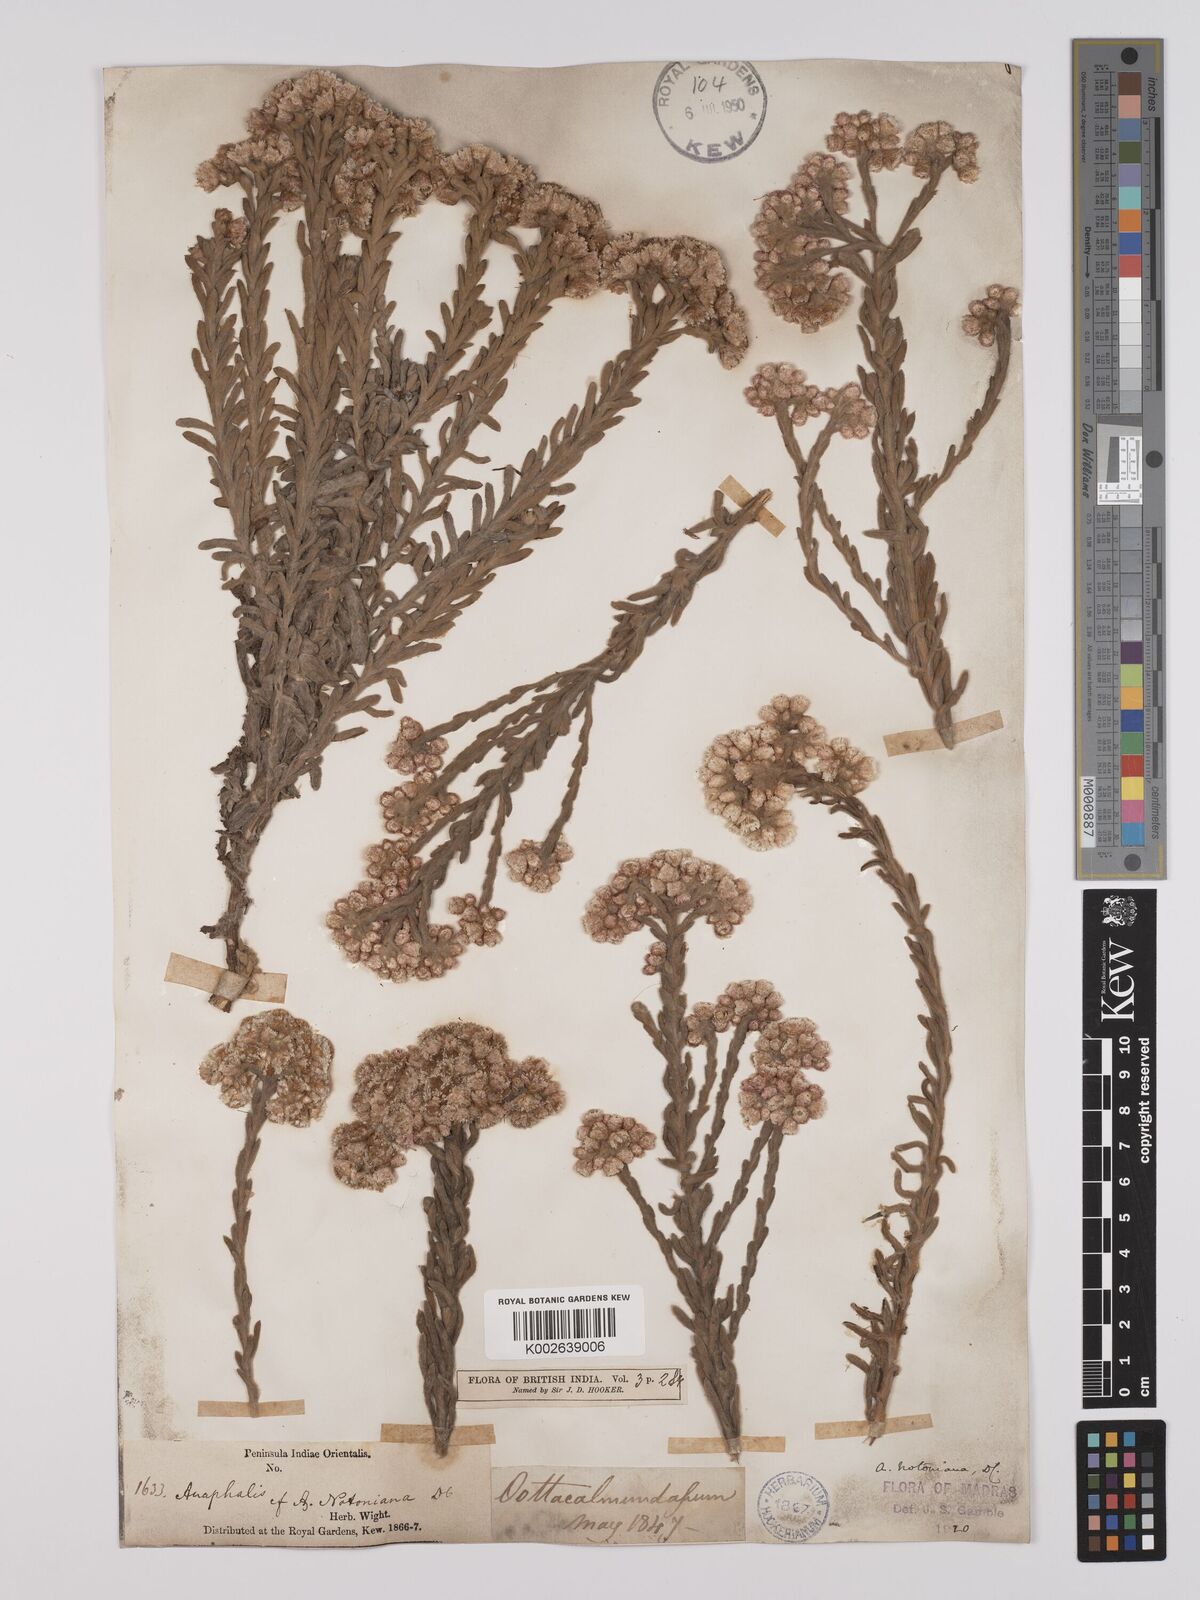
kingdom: Plantae
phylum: Tracheophyta
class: Magnoliopsida
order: Asterales
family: Asteraceae
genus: Anaphalis
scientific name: Anaphalis notoniana
